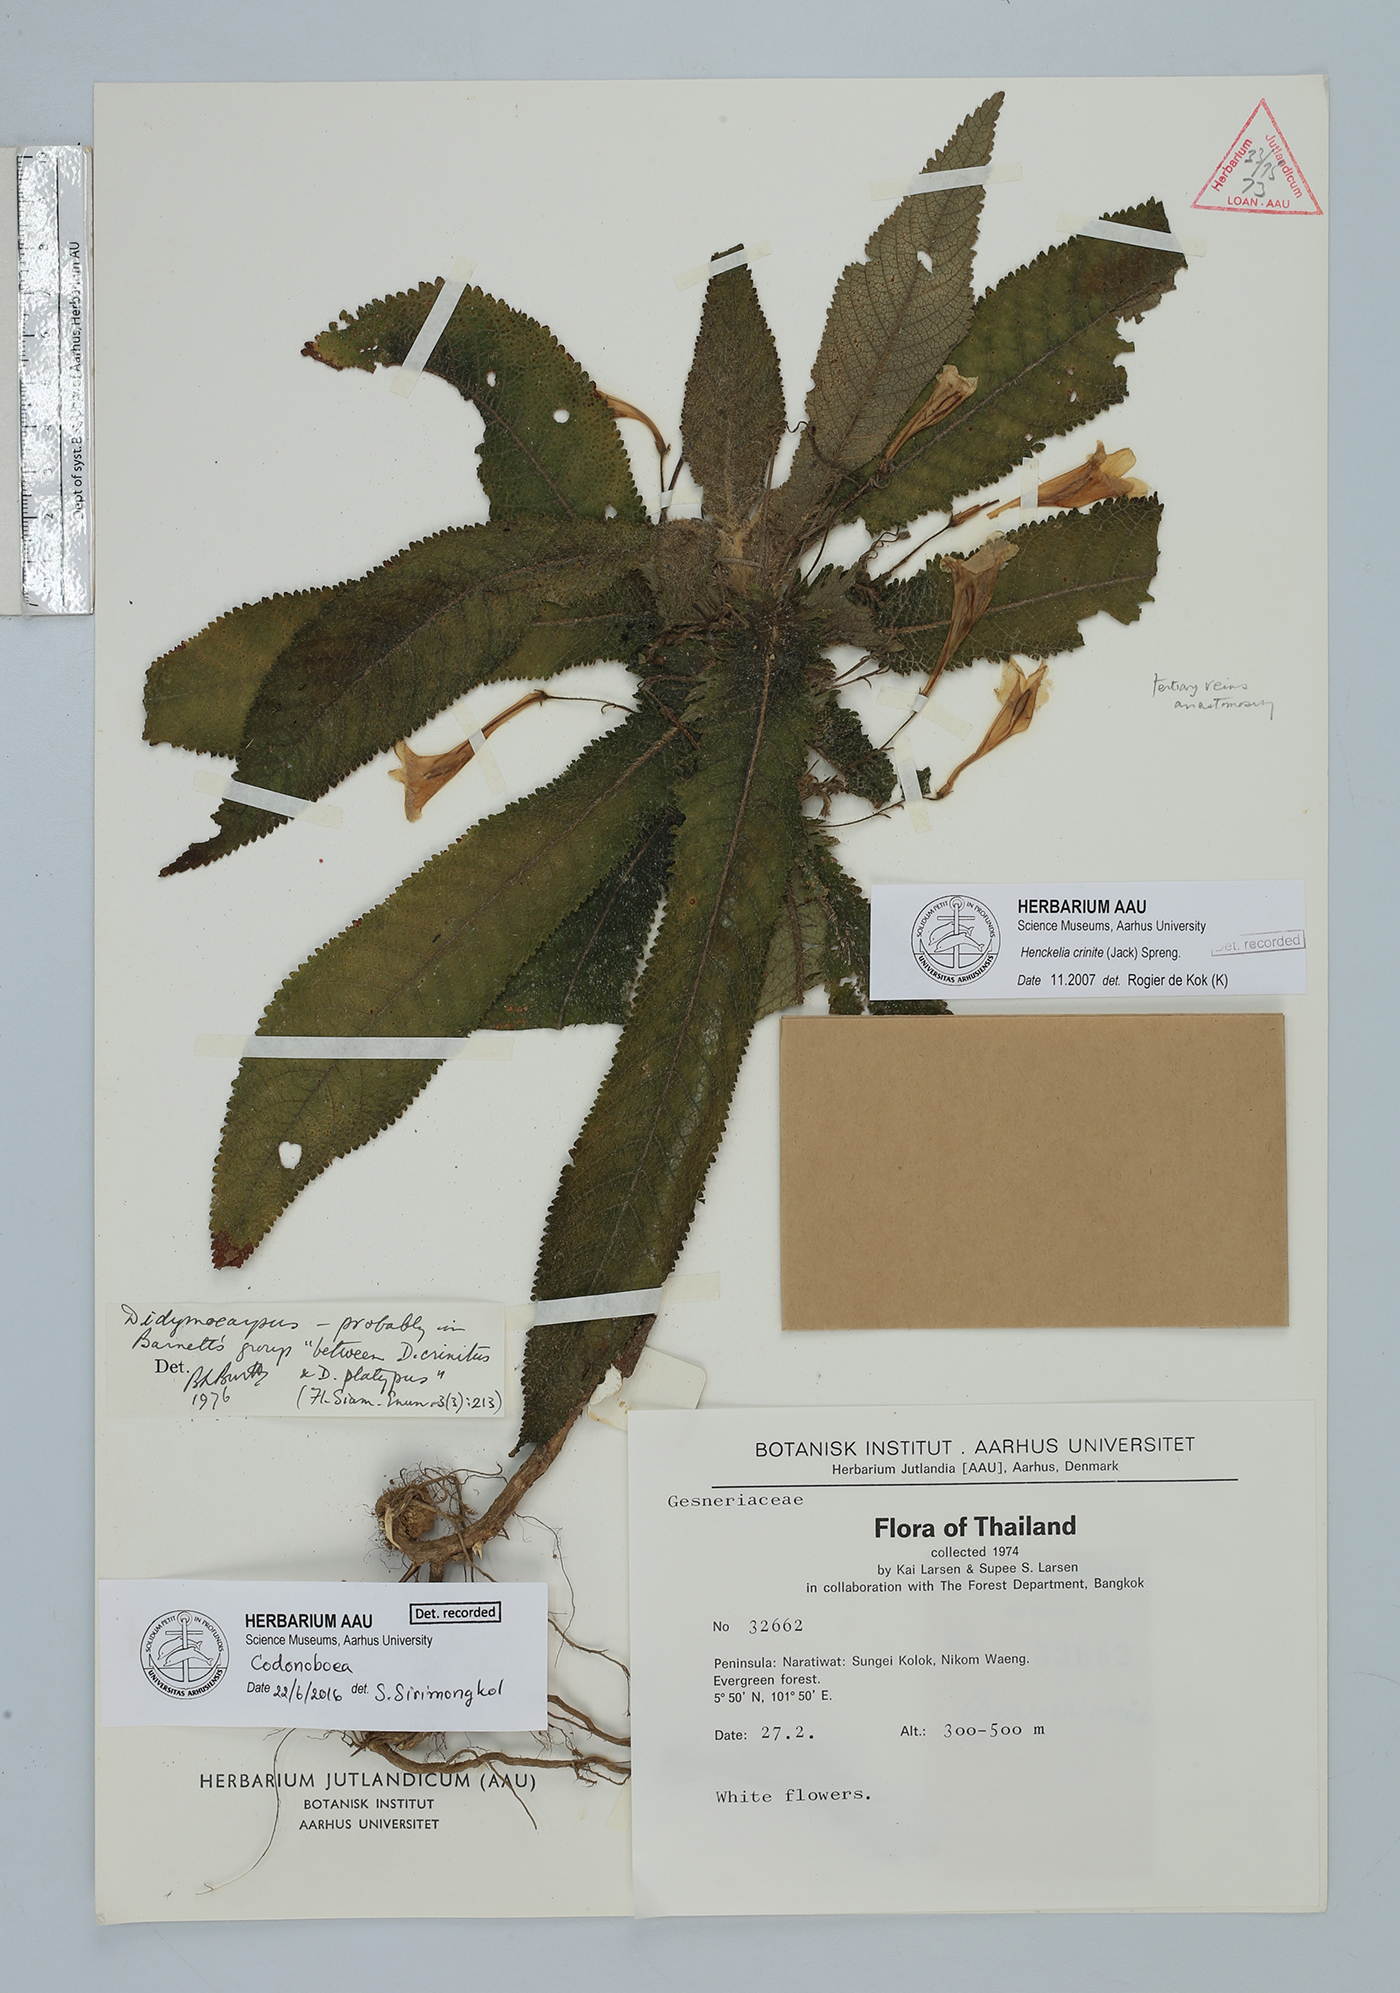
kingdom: Plantae
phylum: Tracheophyta
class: Magnoliopsida
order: Lamiales
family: Gesneriaceae
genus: Codonoboea
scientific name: Codonoboea
